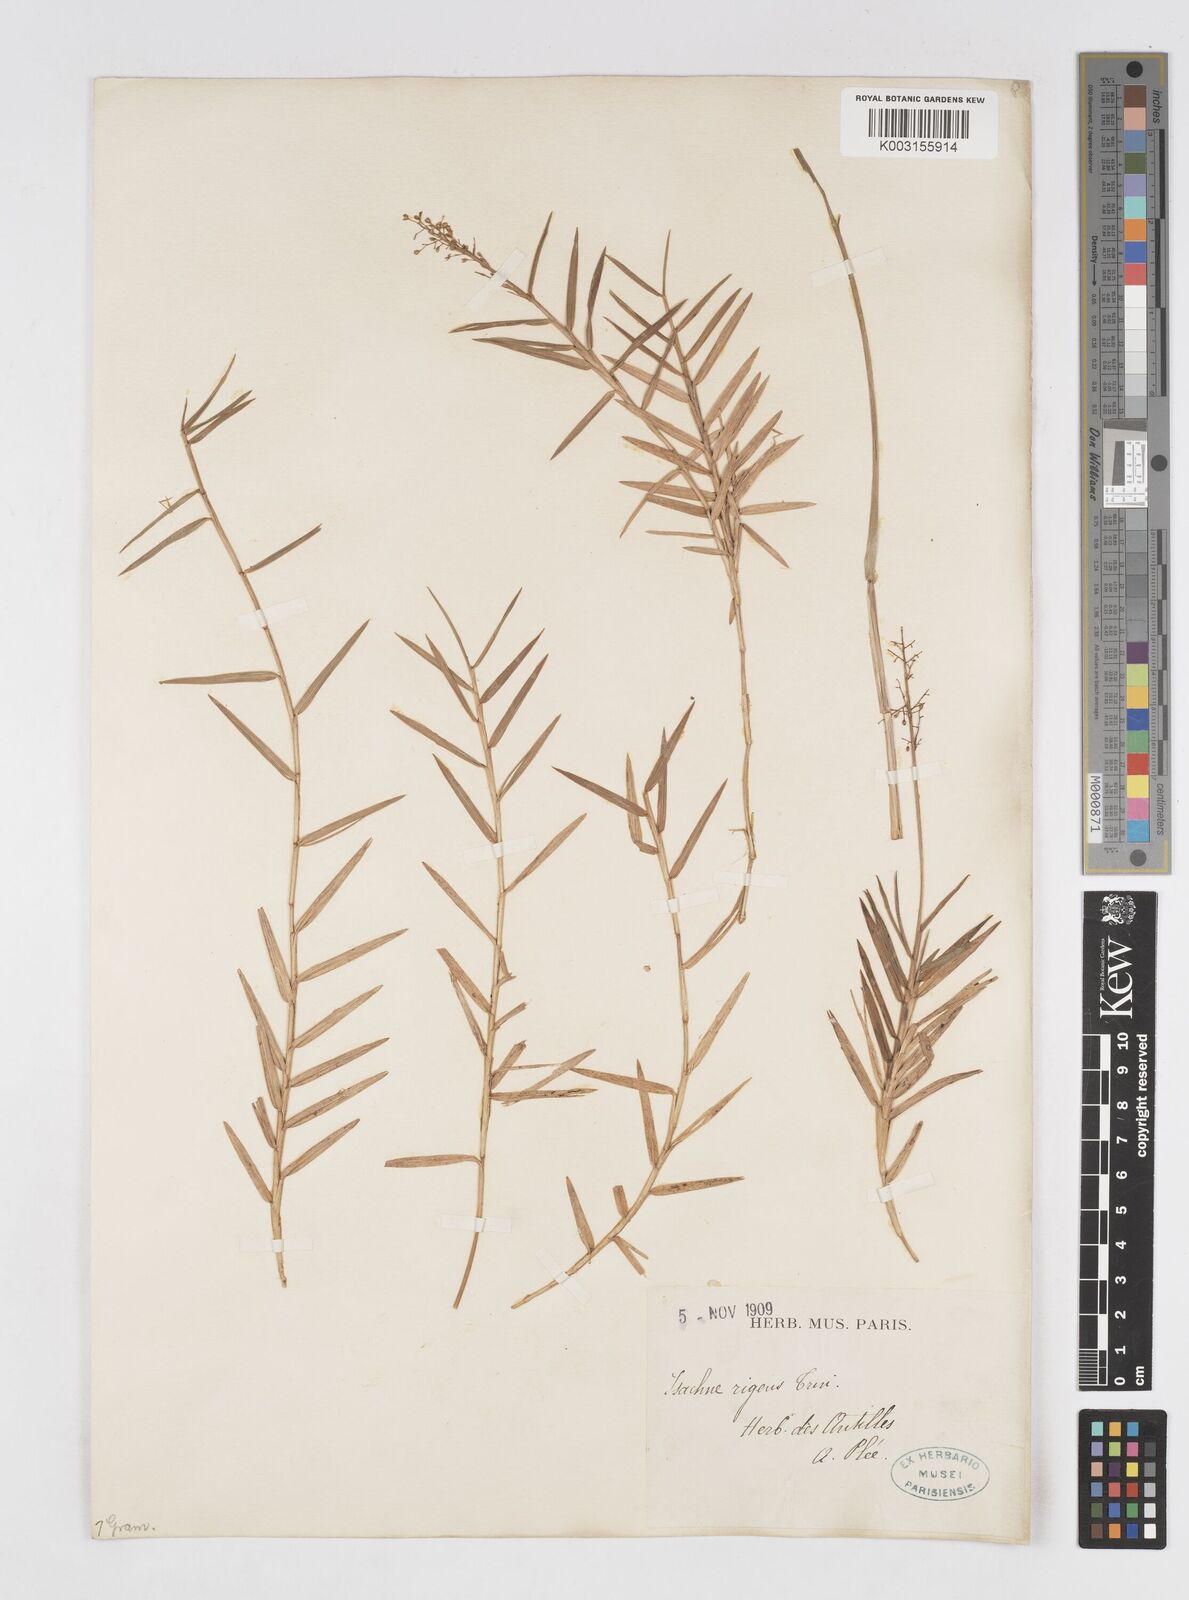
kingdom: Plantae
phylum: Tracheophyta
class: Liliopsida
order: Poales
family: Poaceae
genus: Isachne
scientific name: Isachne rigidifolia
